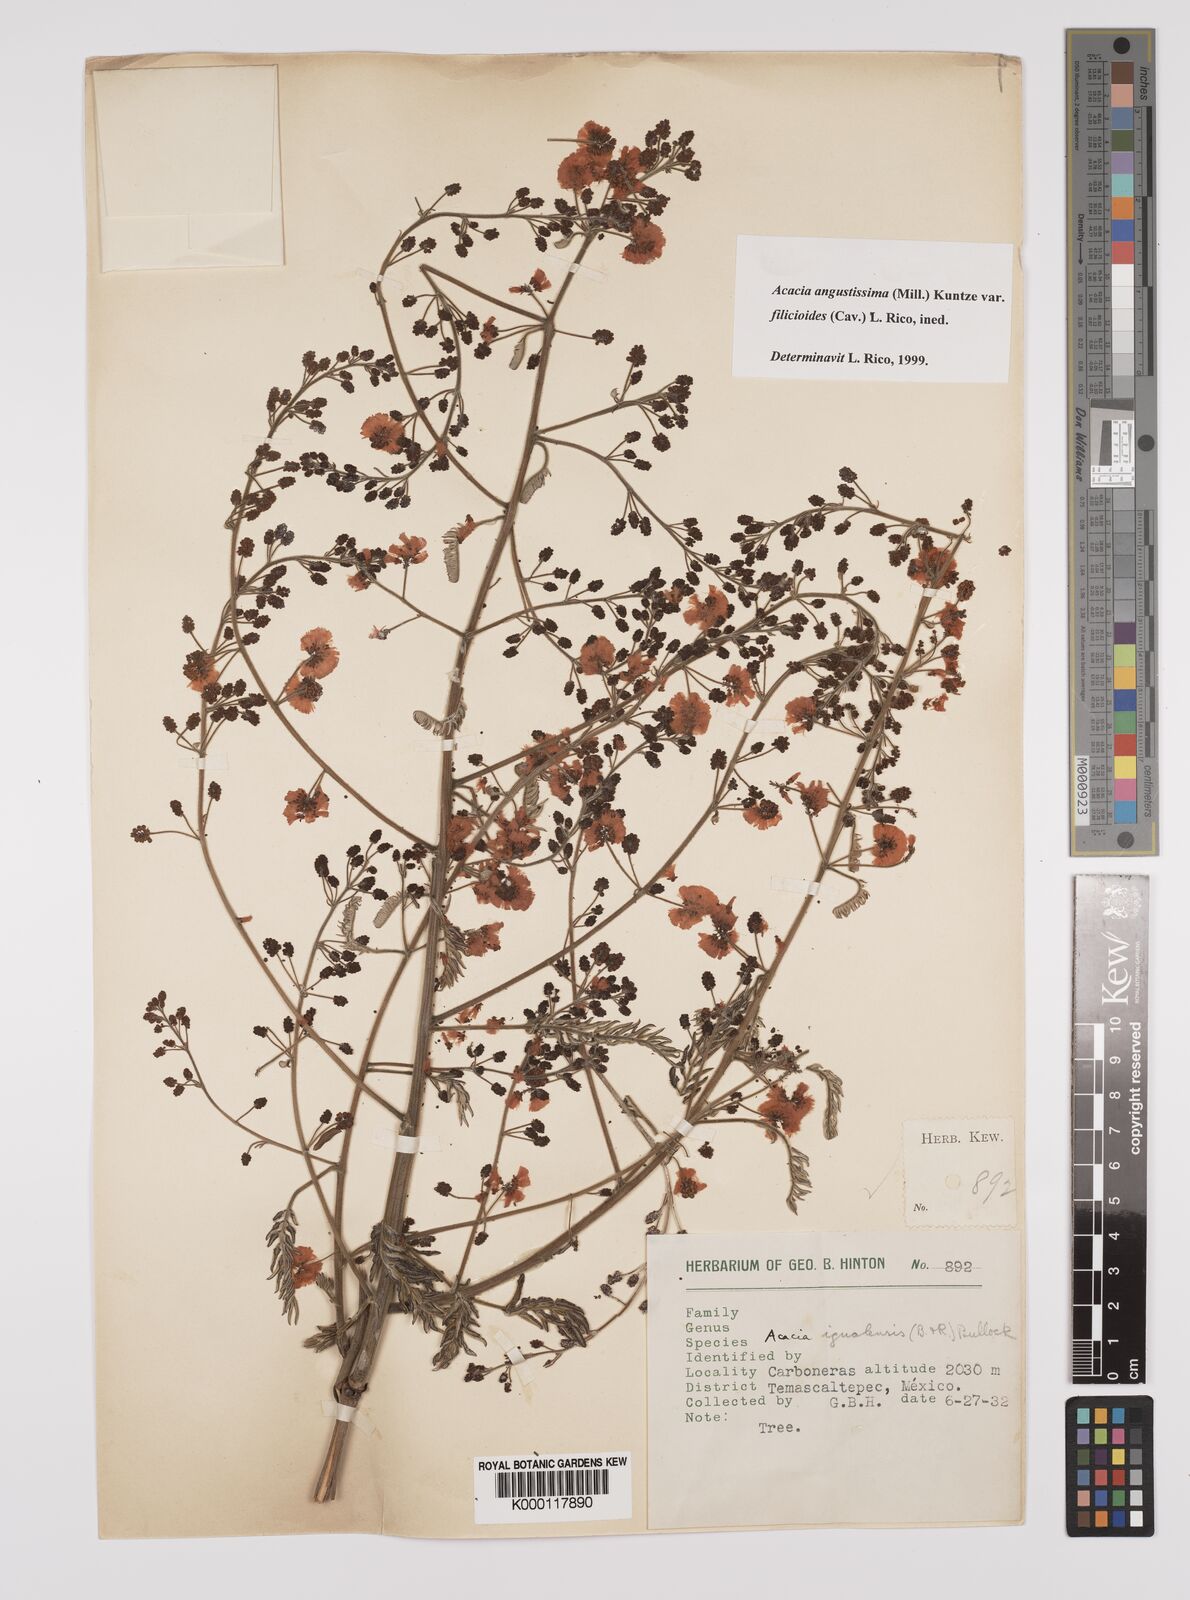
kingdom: Plantae
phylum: Tracheophyta
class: Magnoliopsida
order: Fabales
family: Fabaceae
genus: Acaciella
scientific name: Acaciella angustissima
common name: Prairie acacia
